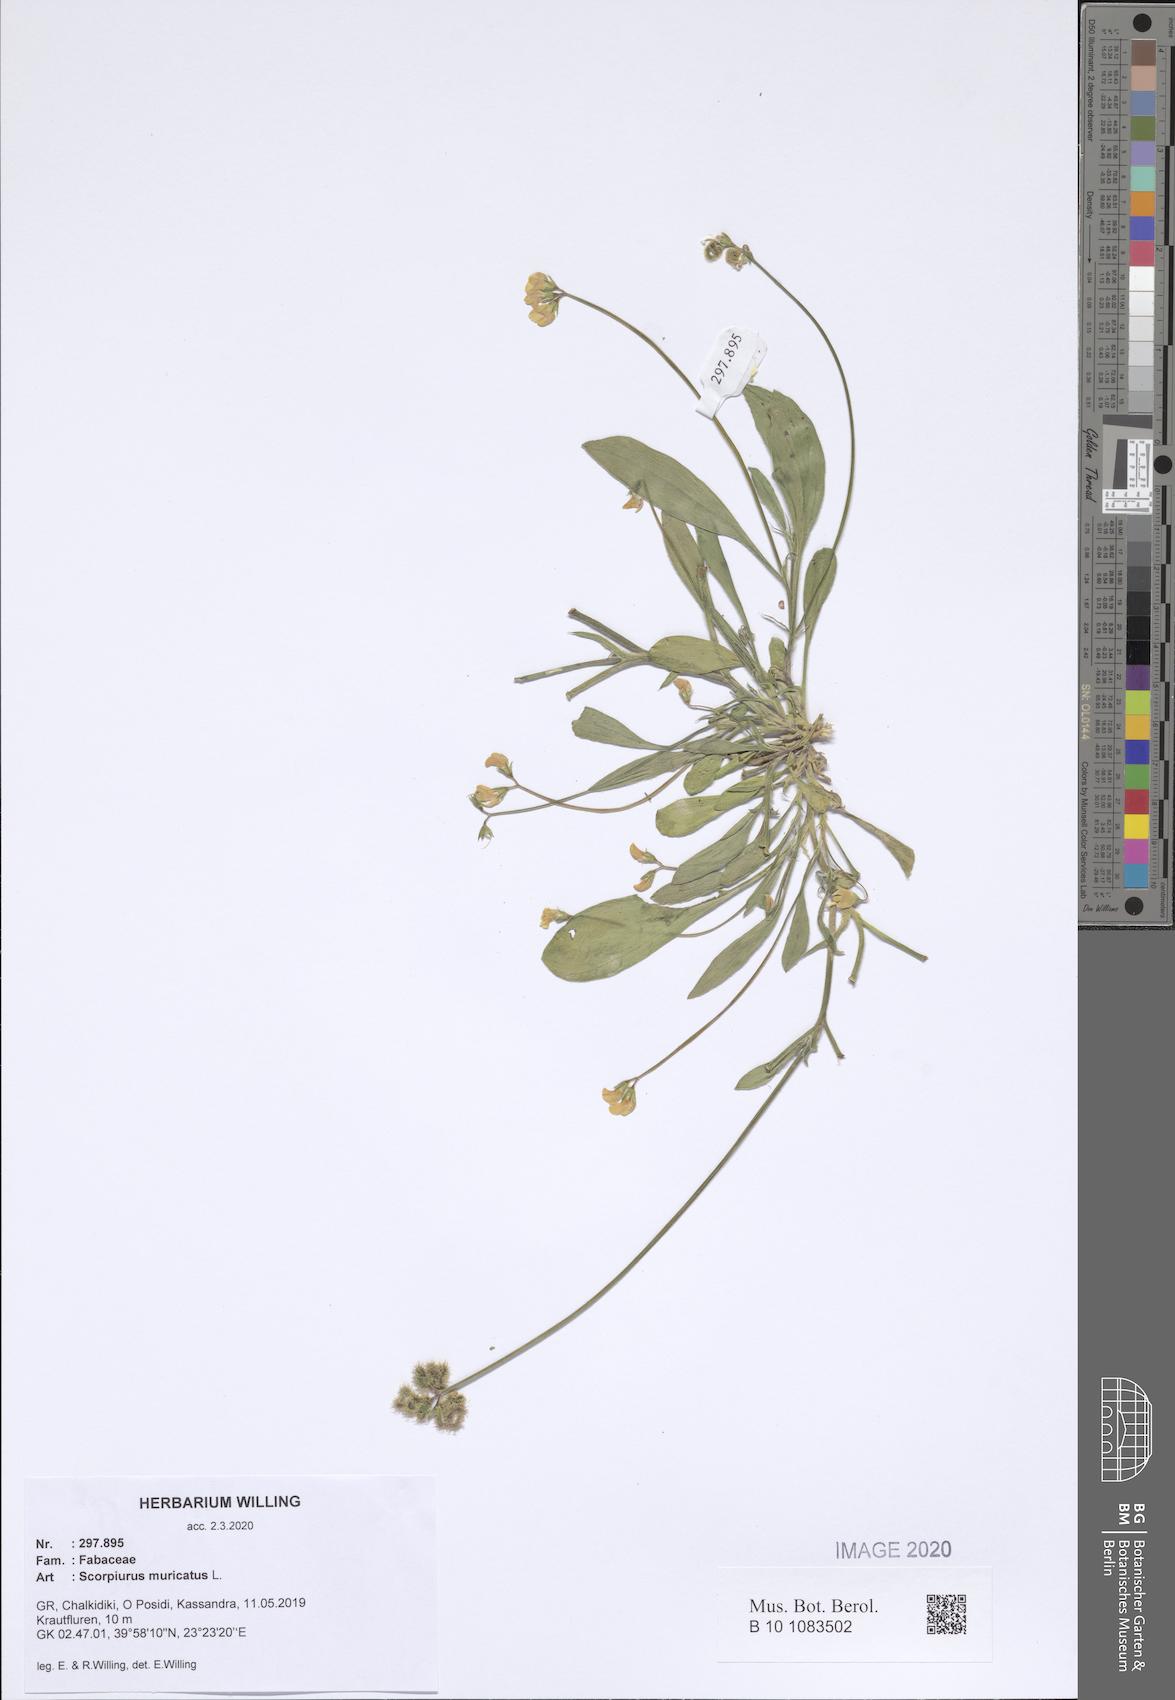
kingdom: Plantae
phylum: Tracheophyta
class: Magnoliopsida
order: Fabales
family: Fabaceae
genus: Scorpiurus
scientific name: Scorpiurus muricatus
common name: Caterpillar-plant
